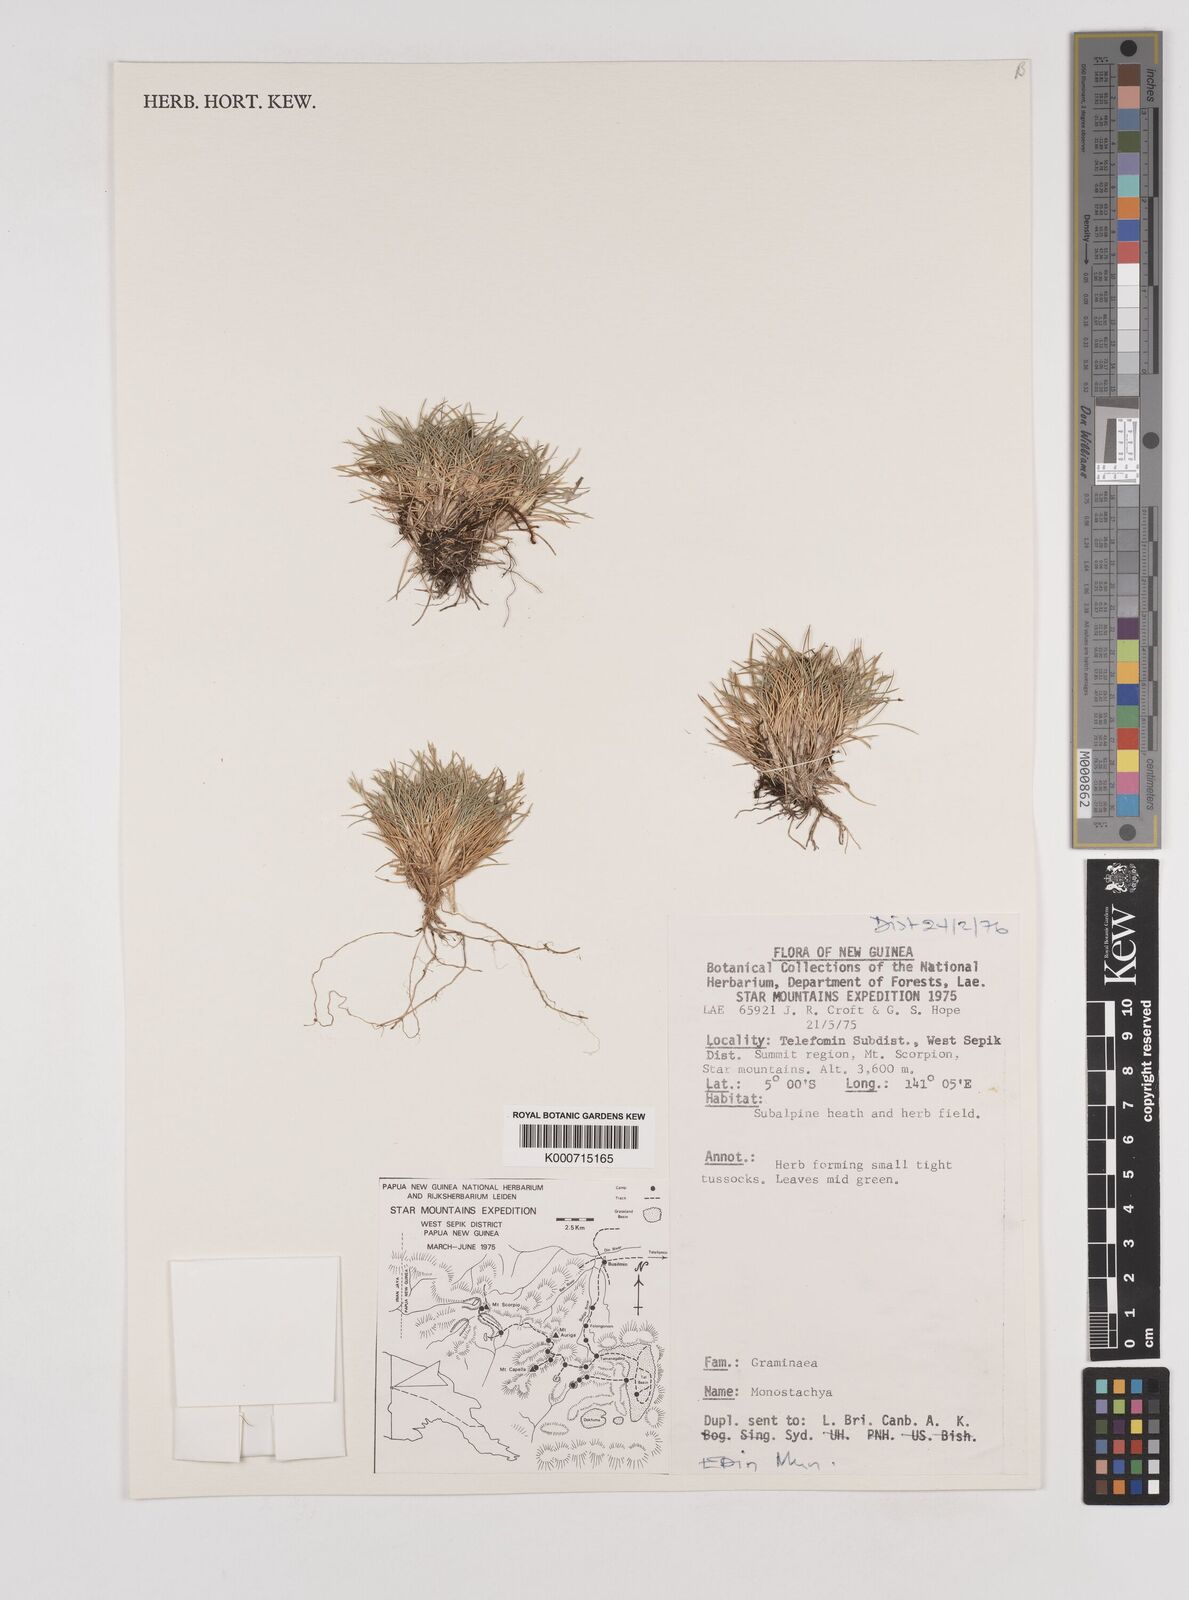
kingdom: Plantae
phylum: Tracheophyta
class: Liliopsida
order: Poales
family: Poaceae
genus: Rytidosperma
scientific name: Rytidosperma oreoboloides
